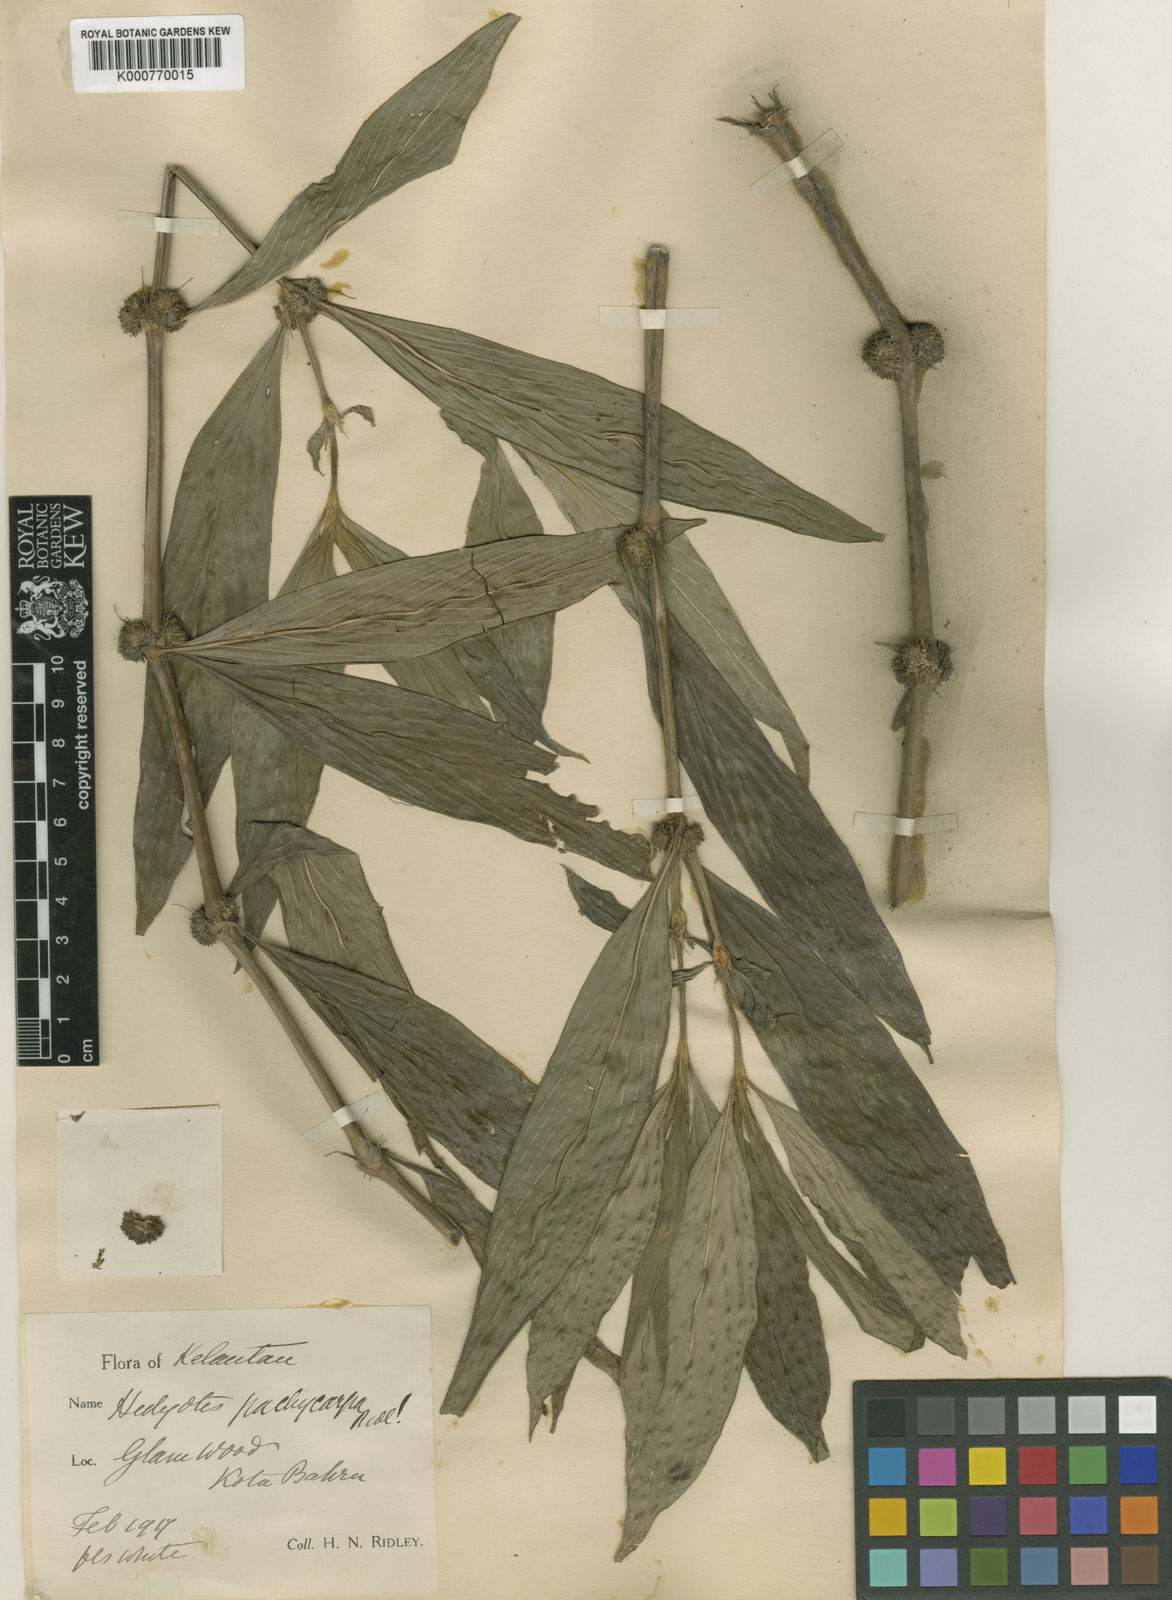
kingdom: Plantae
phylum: Tracheophyta
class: Magnoliopsida
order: Gentianales
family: Rubiaceae
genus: Exallage
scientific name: Exallage pachycarpa
